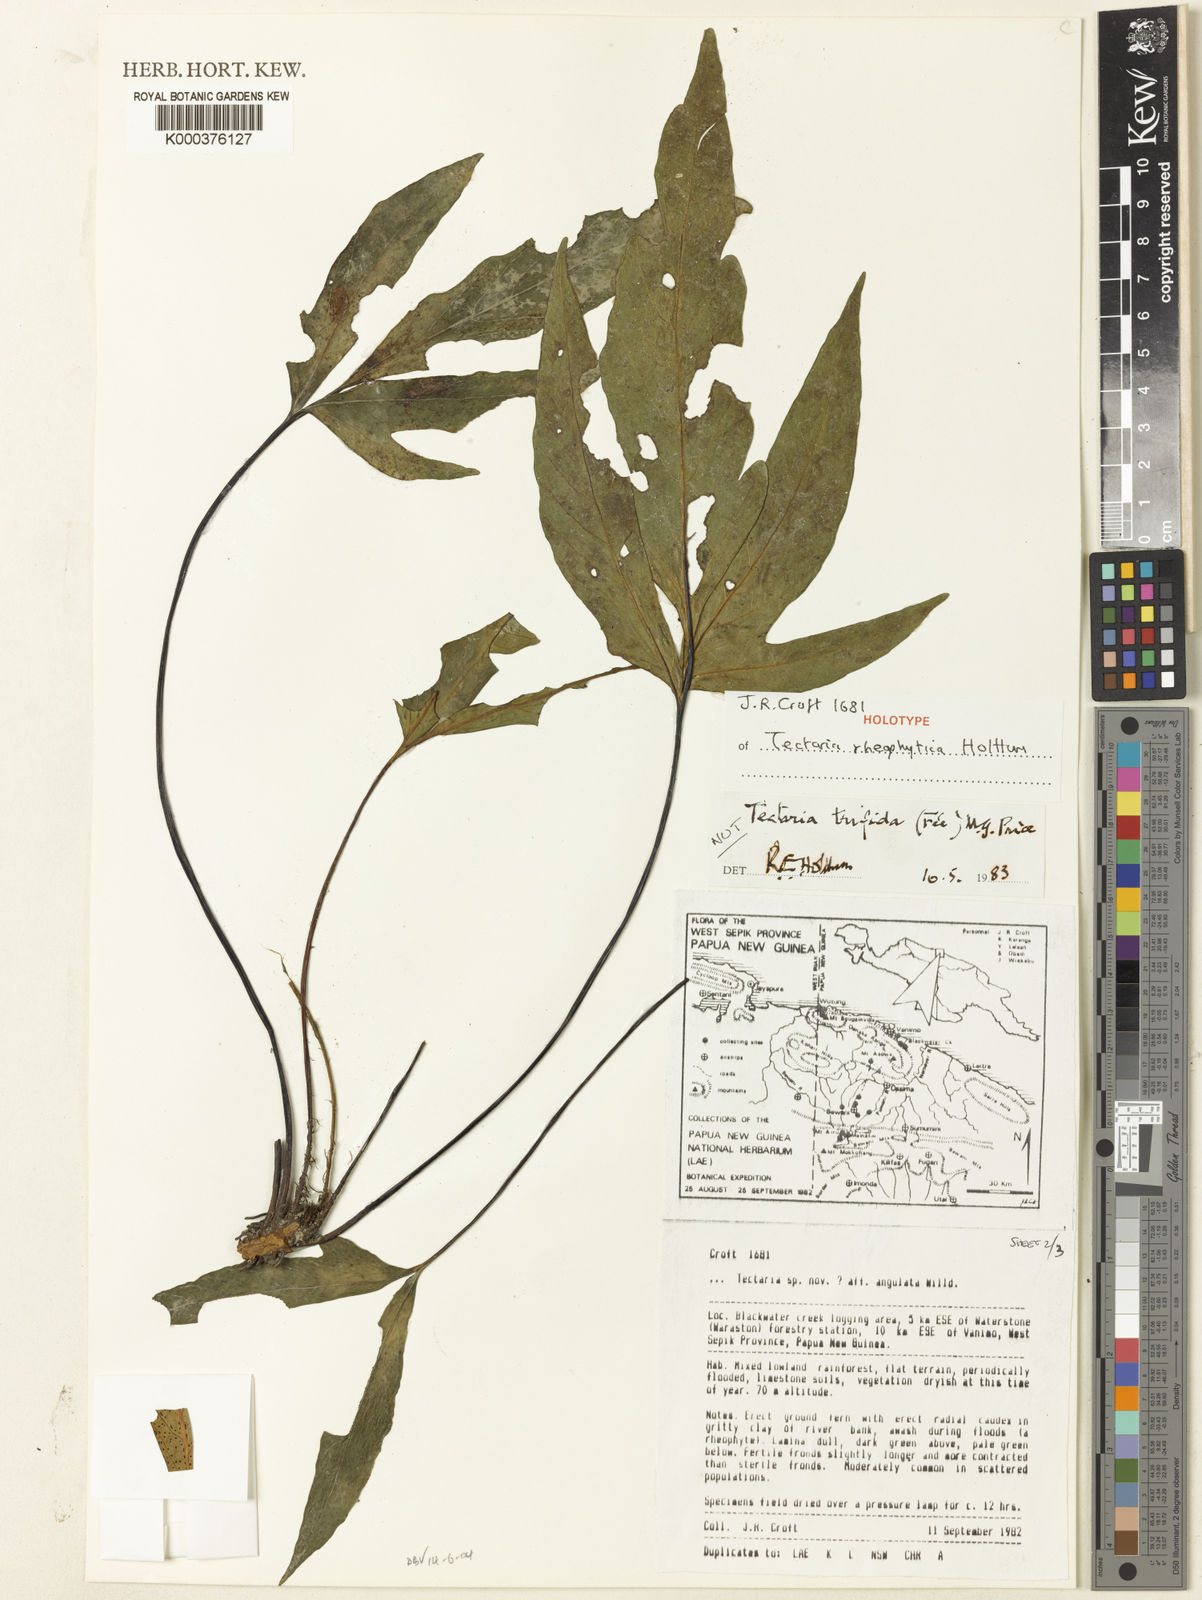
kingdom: Plantae
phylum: Tracheophyta
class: Polypodiopsida
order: Polypodiales
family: Tectariaceae
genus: Tectaria
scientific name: Tectaria rheophytica
